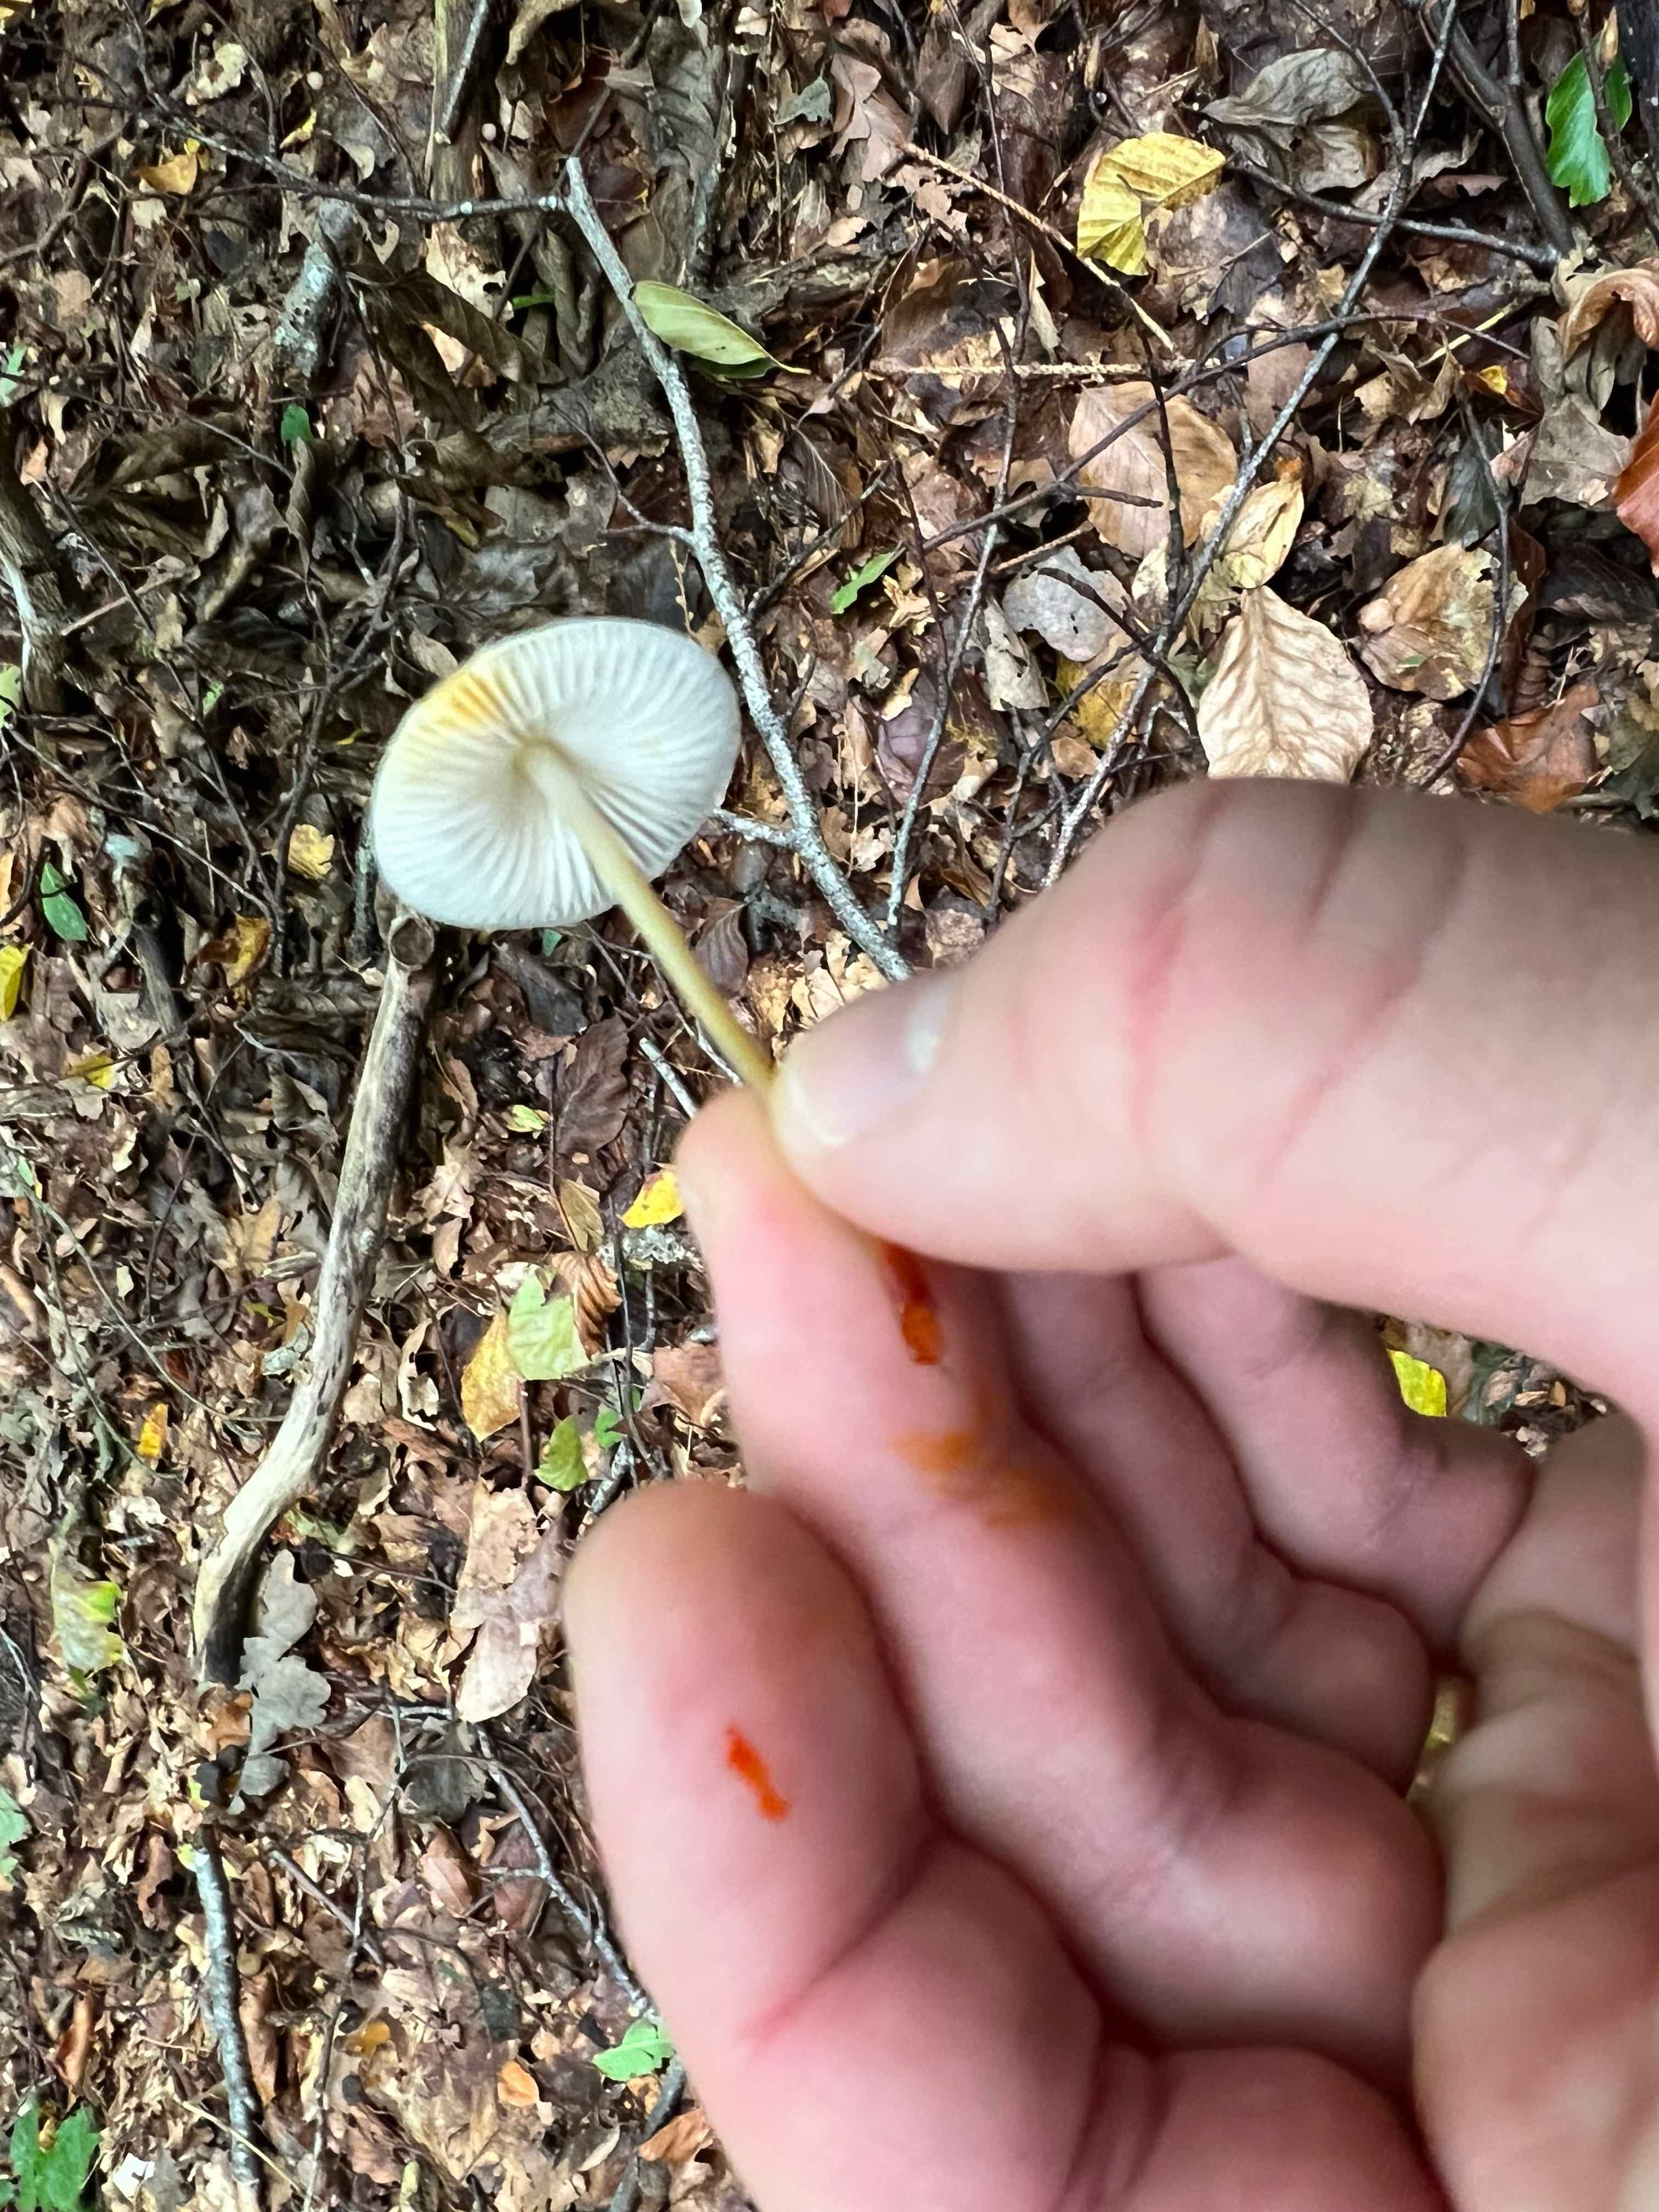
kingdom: Fungi
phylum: Basidiomycota
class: Agaricomycetes
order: Agaricales
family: Mycenaceae
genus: Mycena
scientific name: Mycena crocata
